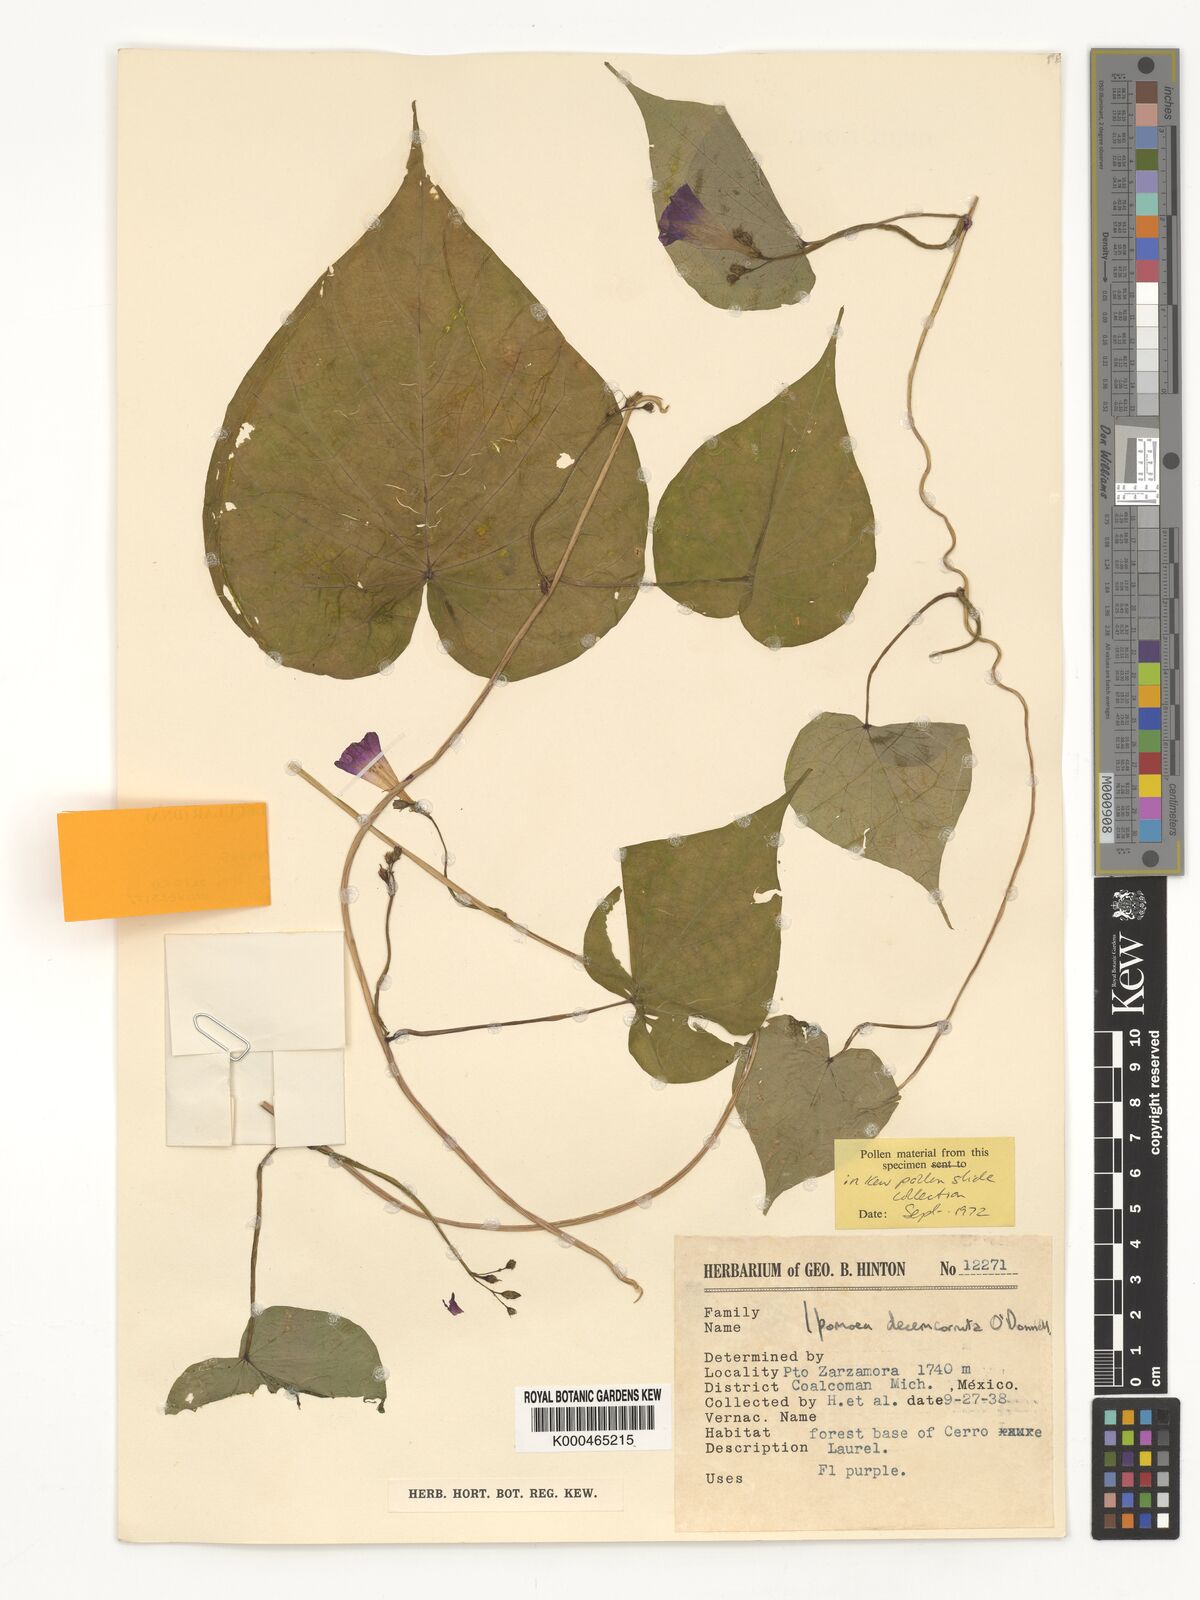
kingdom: Plantae
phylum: Tracheophyta
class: Magnoliopsida
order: Solanales
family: Convolvulaceae
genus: Ipomoea
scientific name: Ipomoea decemcornuta
